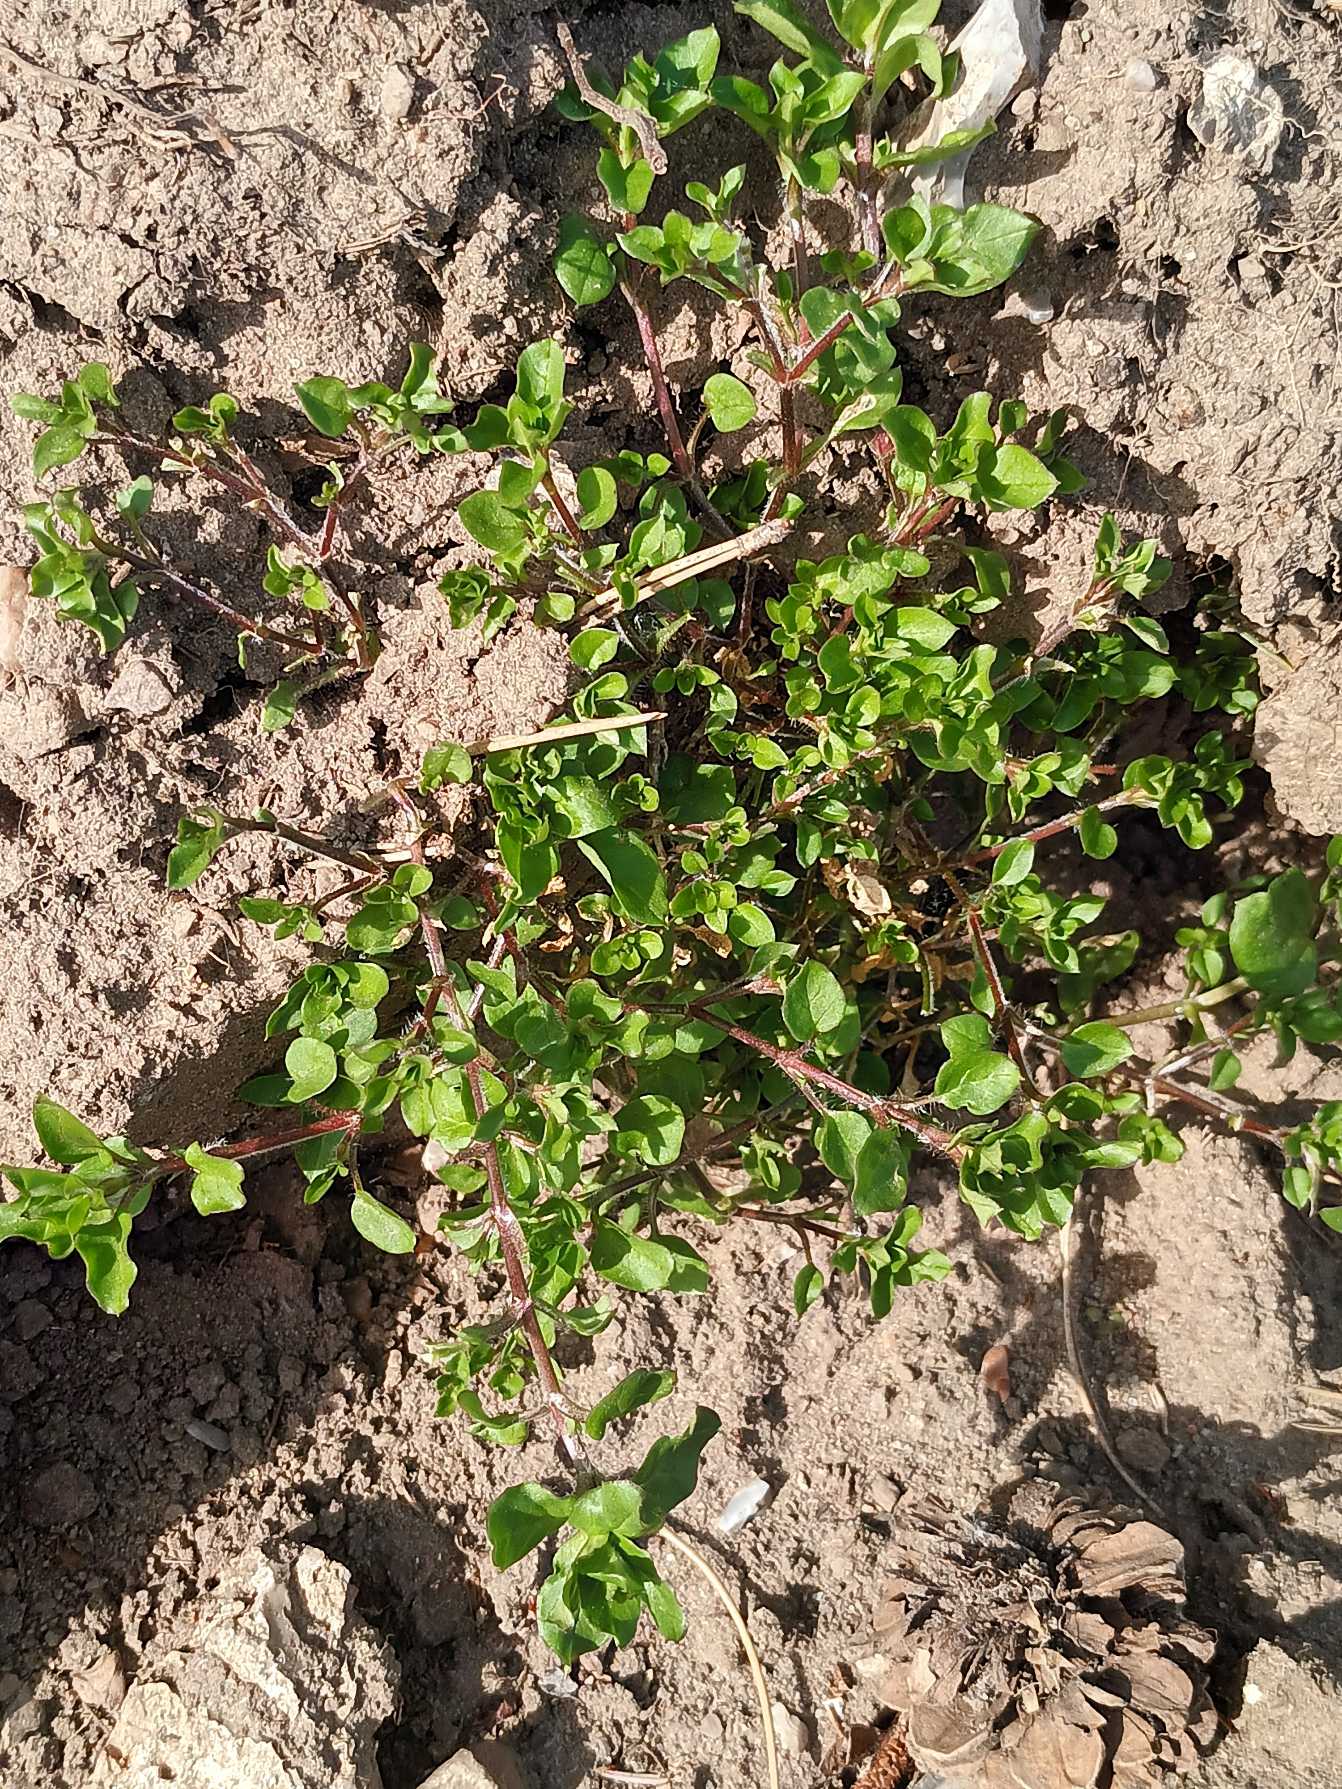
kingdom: Plantae
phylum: Tracheophyta
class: Magnoliopsida
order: Caryophyllales
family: Caryophyllaceae
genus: Stellaria
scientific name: Stellaria media
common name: Almindelig fuglegræs
